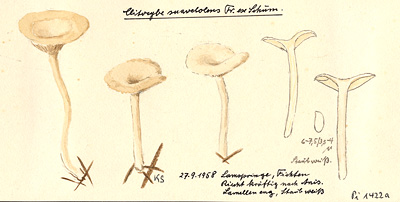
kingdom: Fungi
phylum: Basidiomycota
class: Agaricomycetes
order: Agaricales
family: Tricholomataceae
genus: Clitocybe
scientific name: Clitocybe suaveolens
